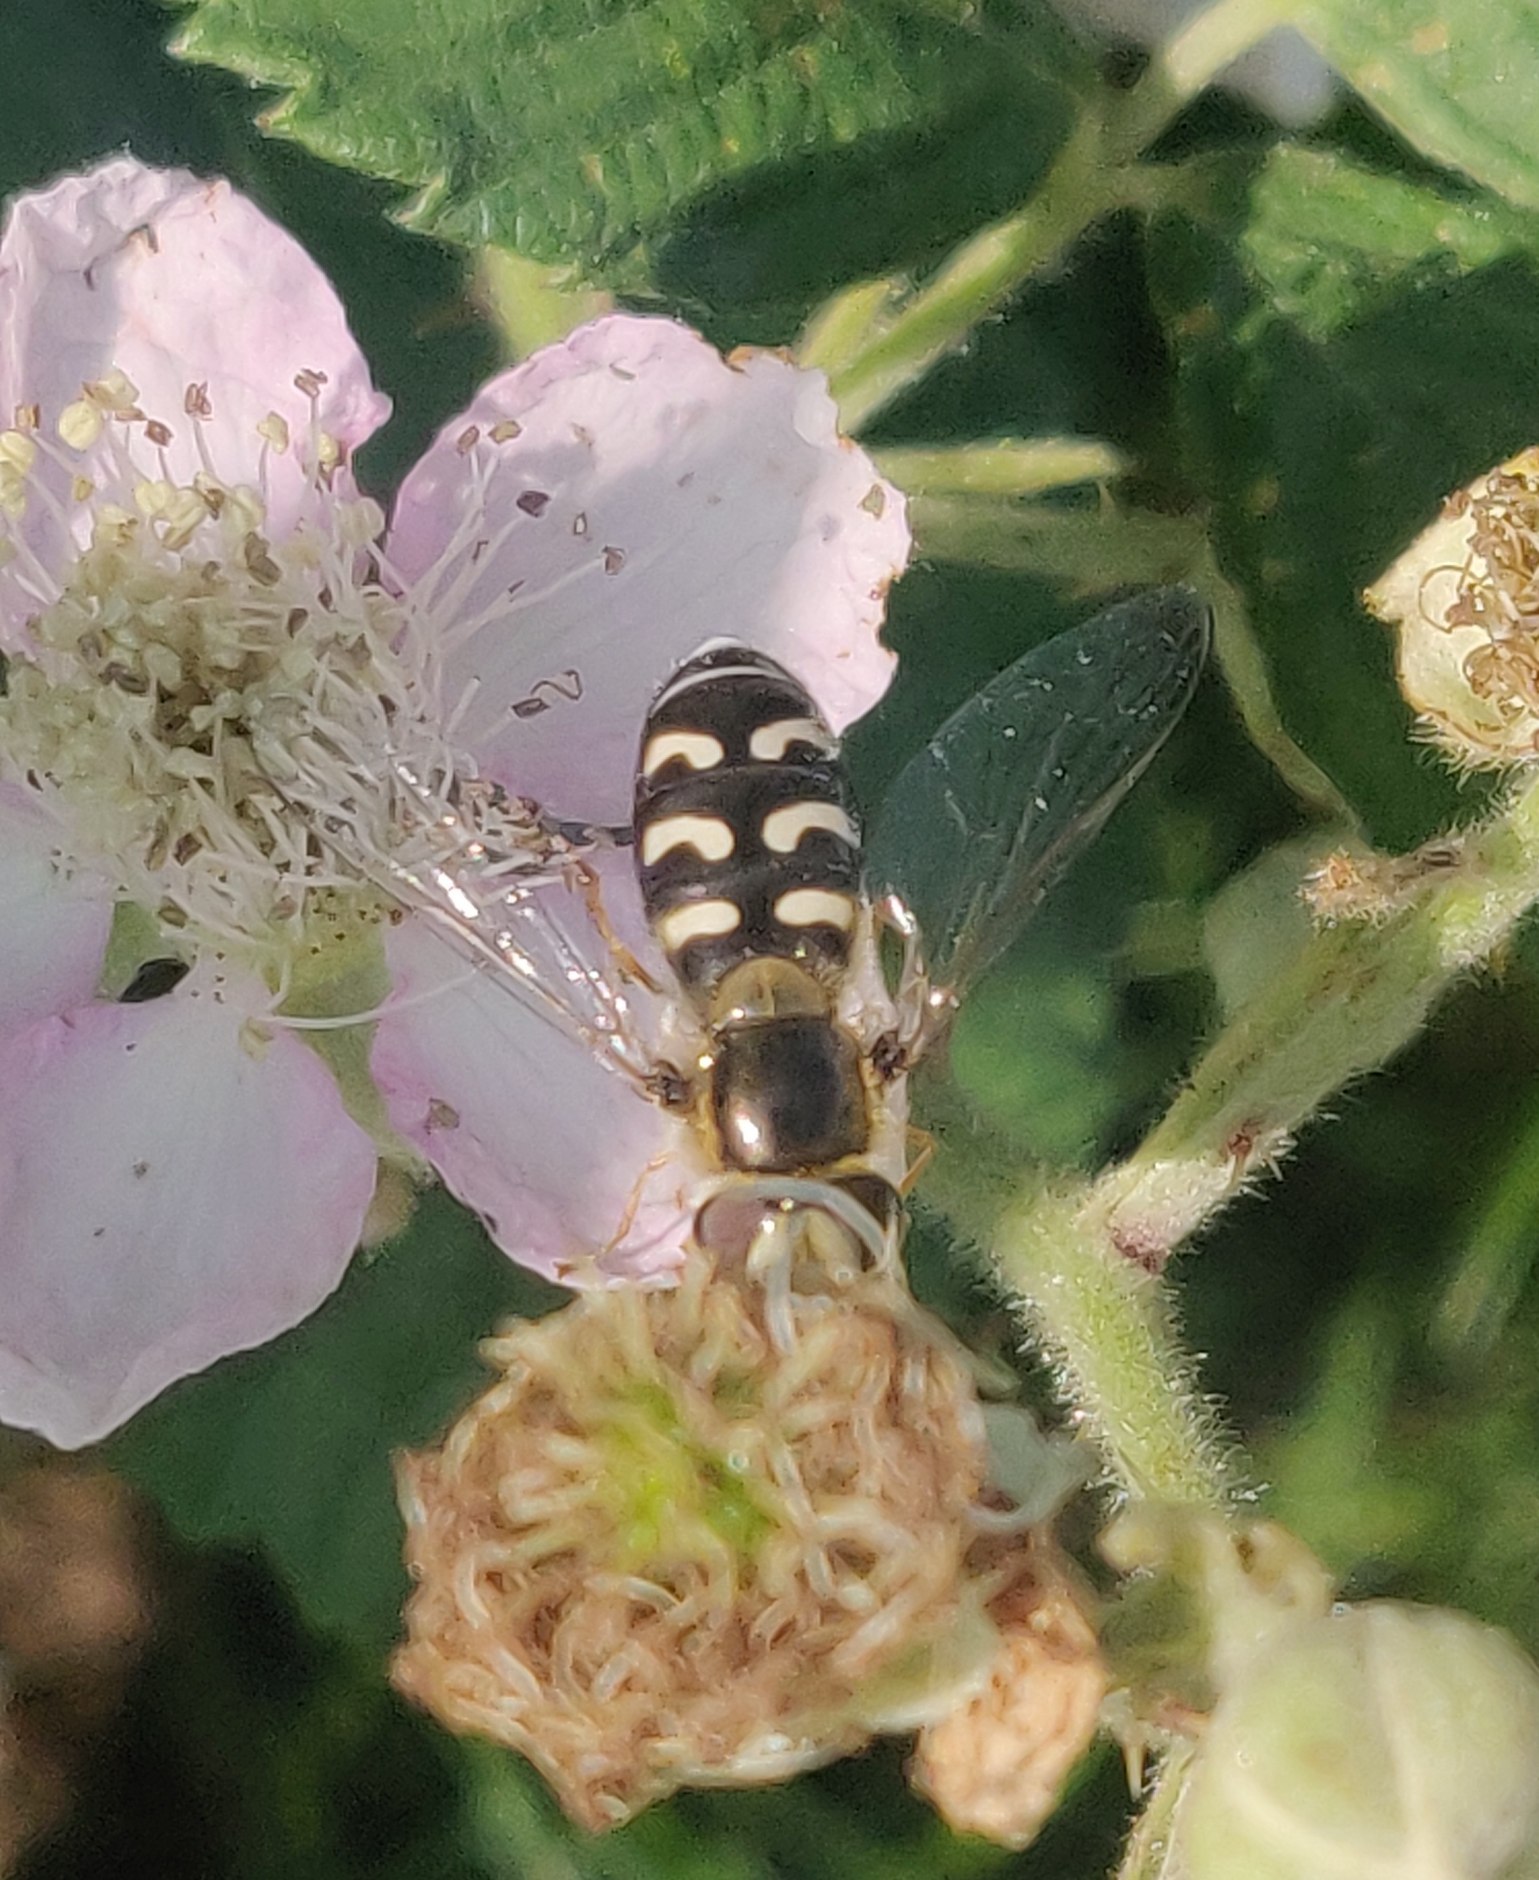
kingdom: Animalia
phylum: Arthropoda
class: Insecta
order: Diptera
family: Syrphidae
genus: Scaeva
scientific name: Scaeva pyrastri
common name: Hvidplettet agersvirreflue
